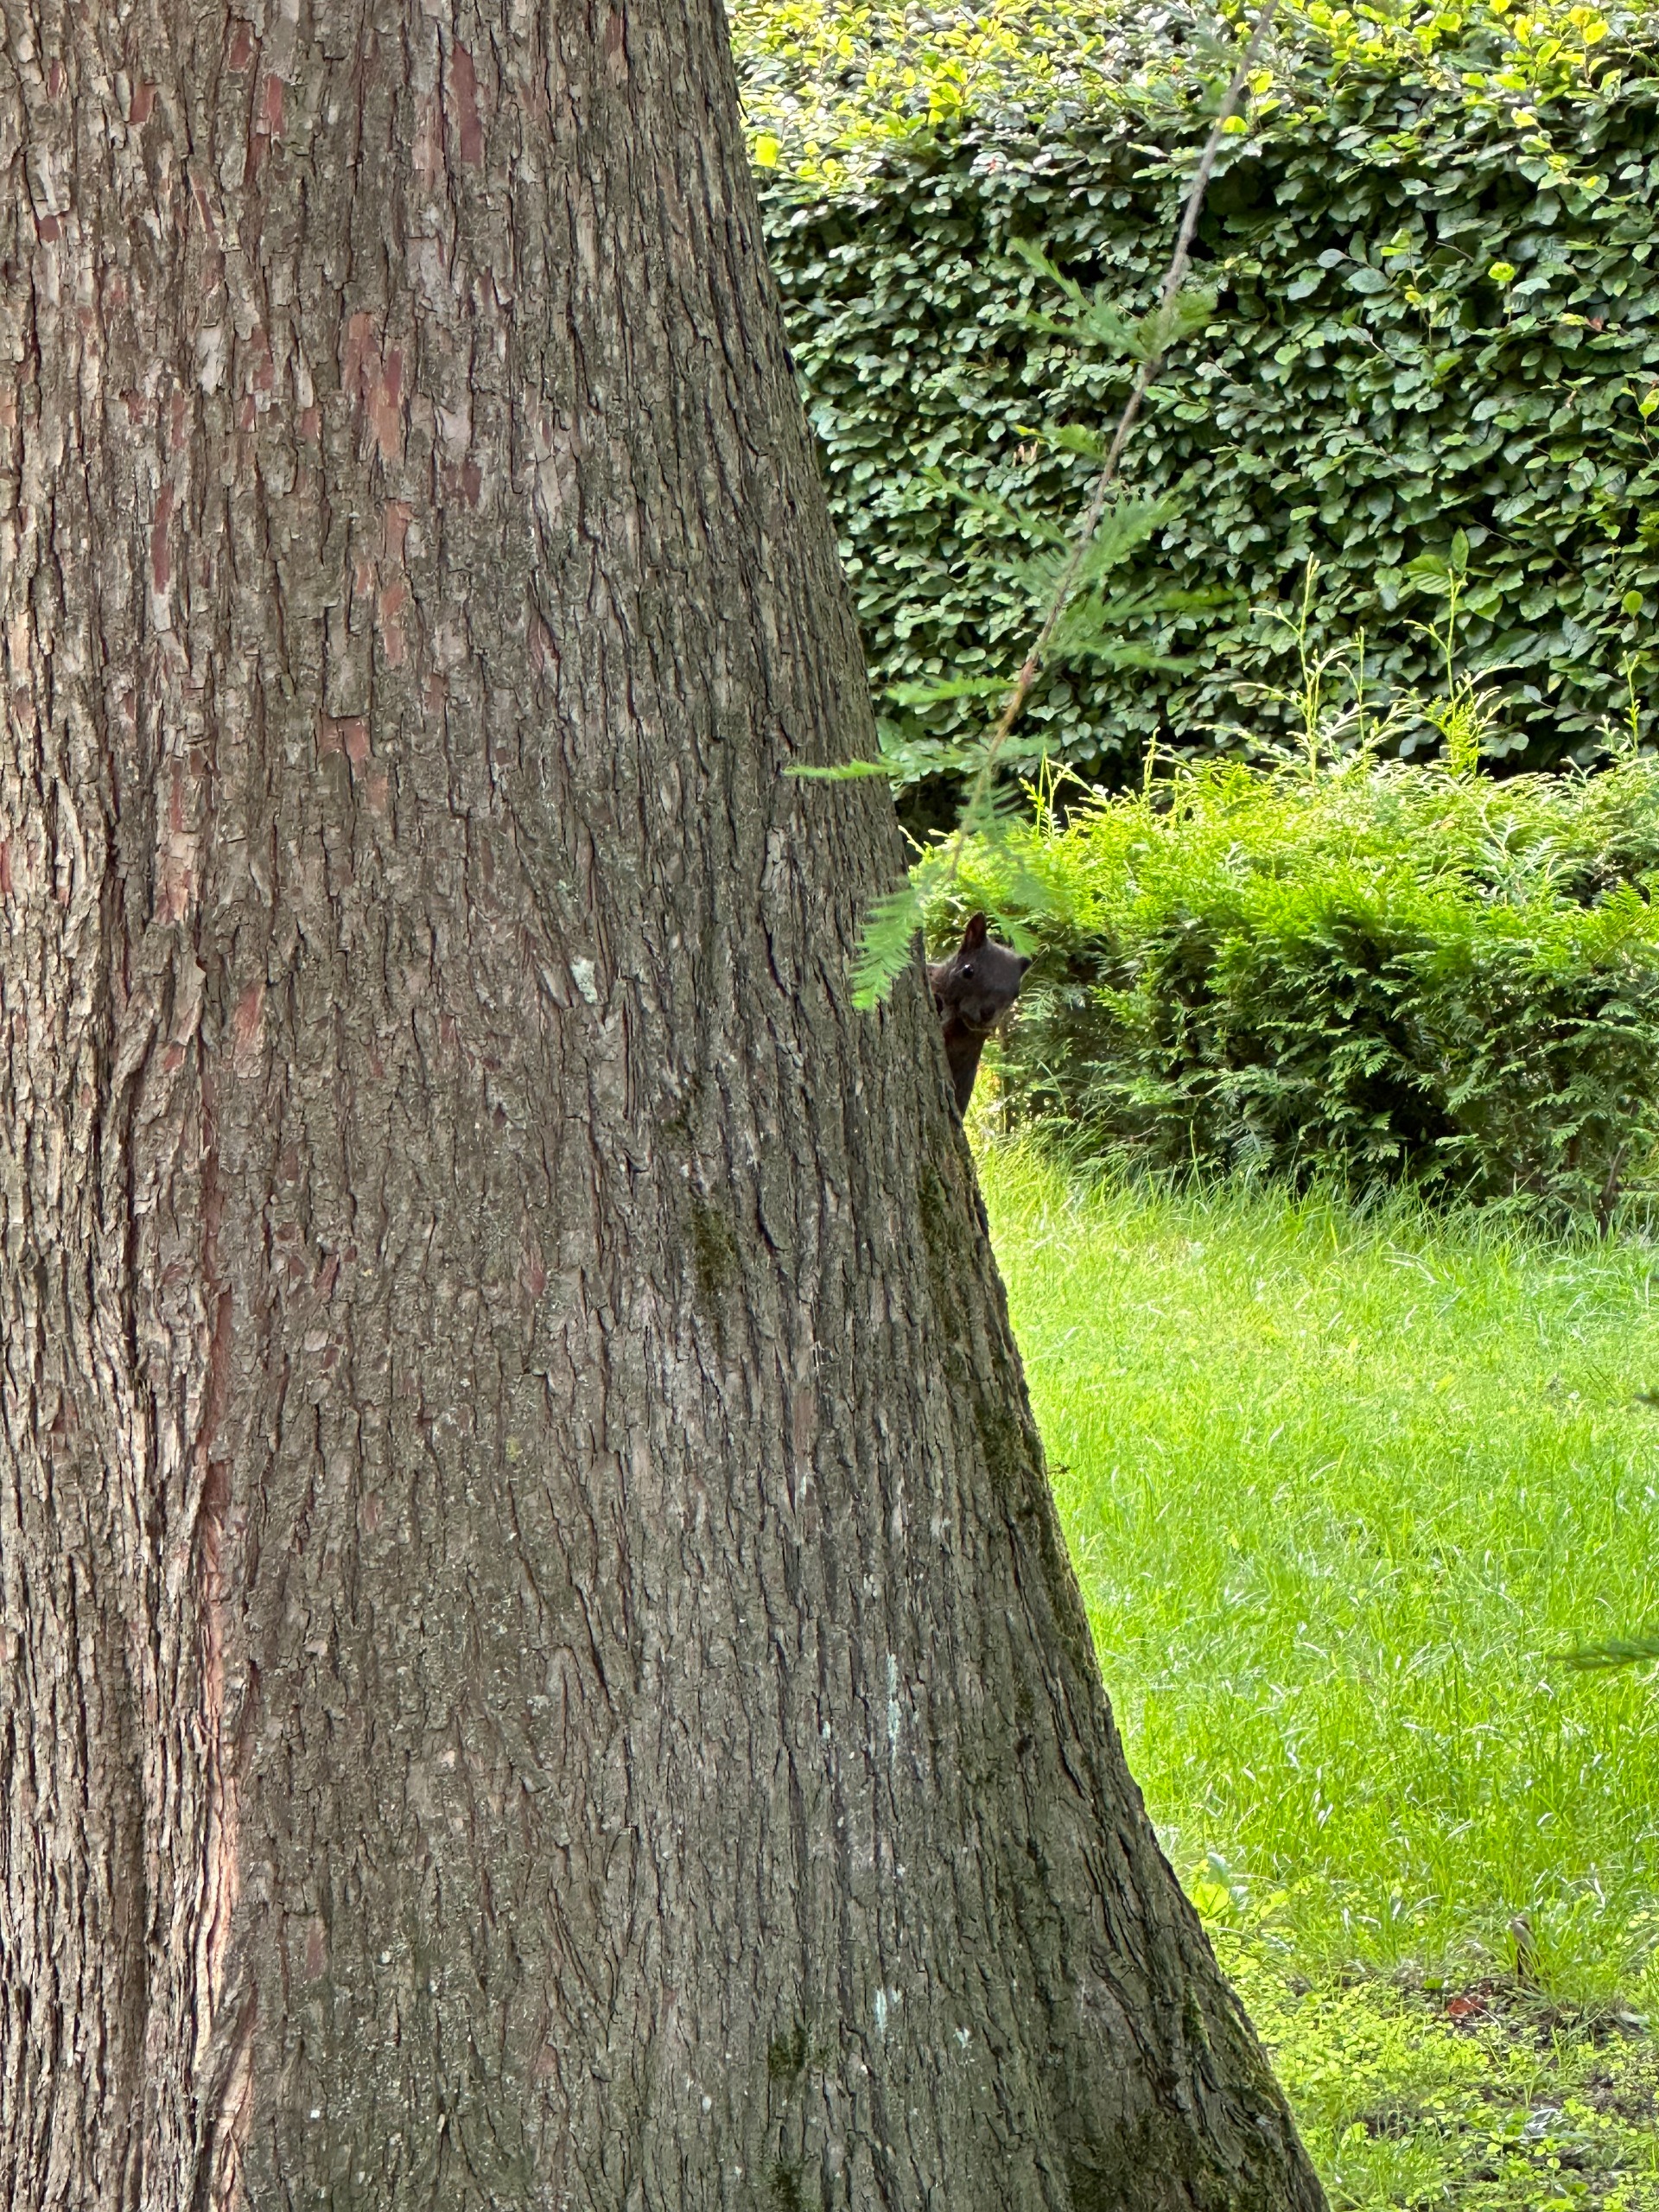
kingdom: Animalia
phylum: Chordata
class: Mammalia
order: Rodentia
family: Sciuridae
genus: Sciurus
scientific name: Sciurus vulgaris
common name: Egern
